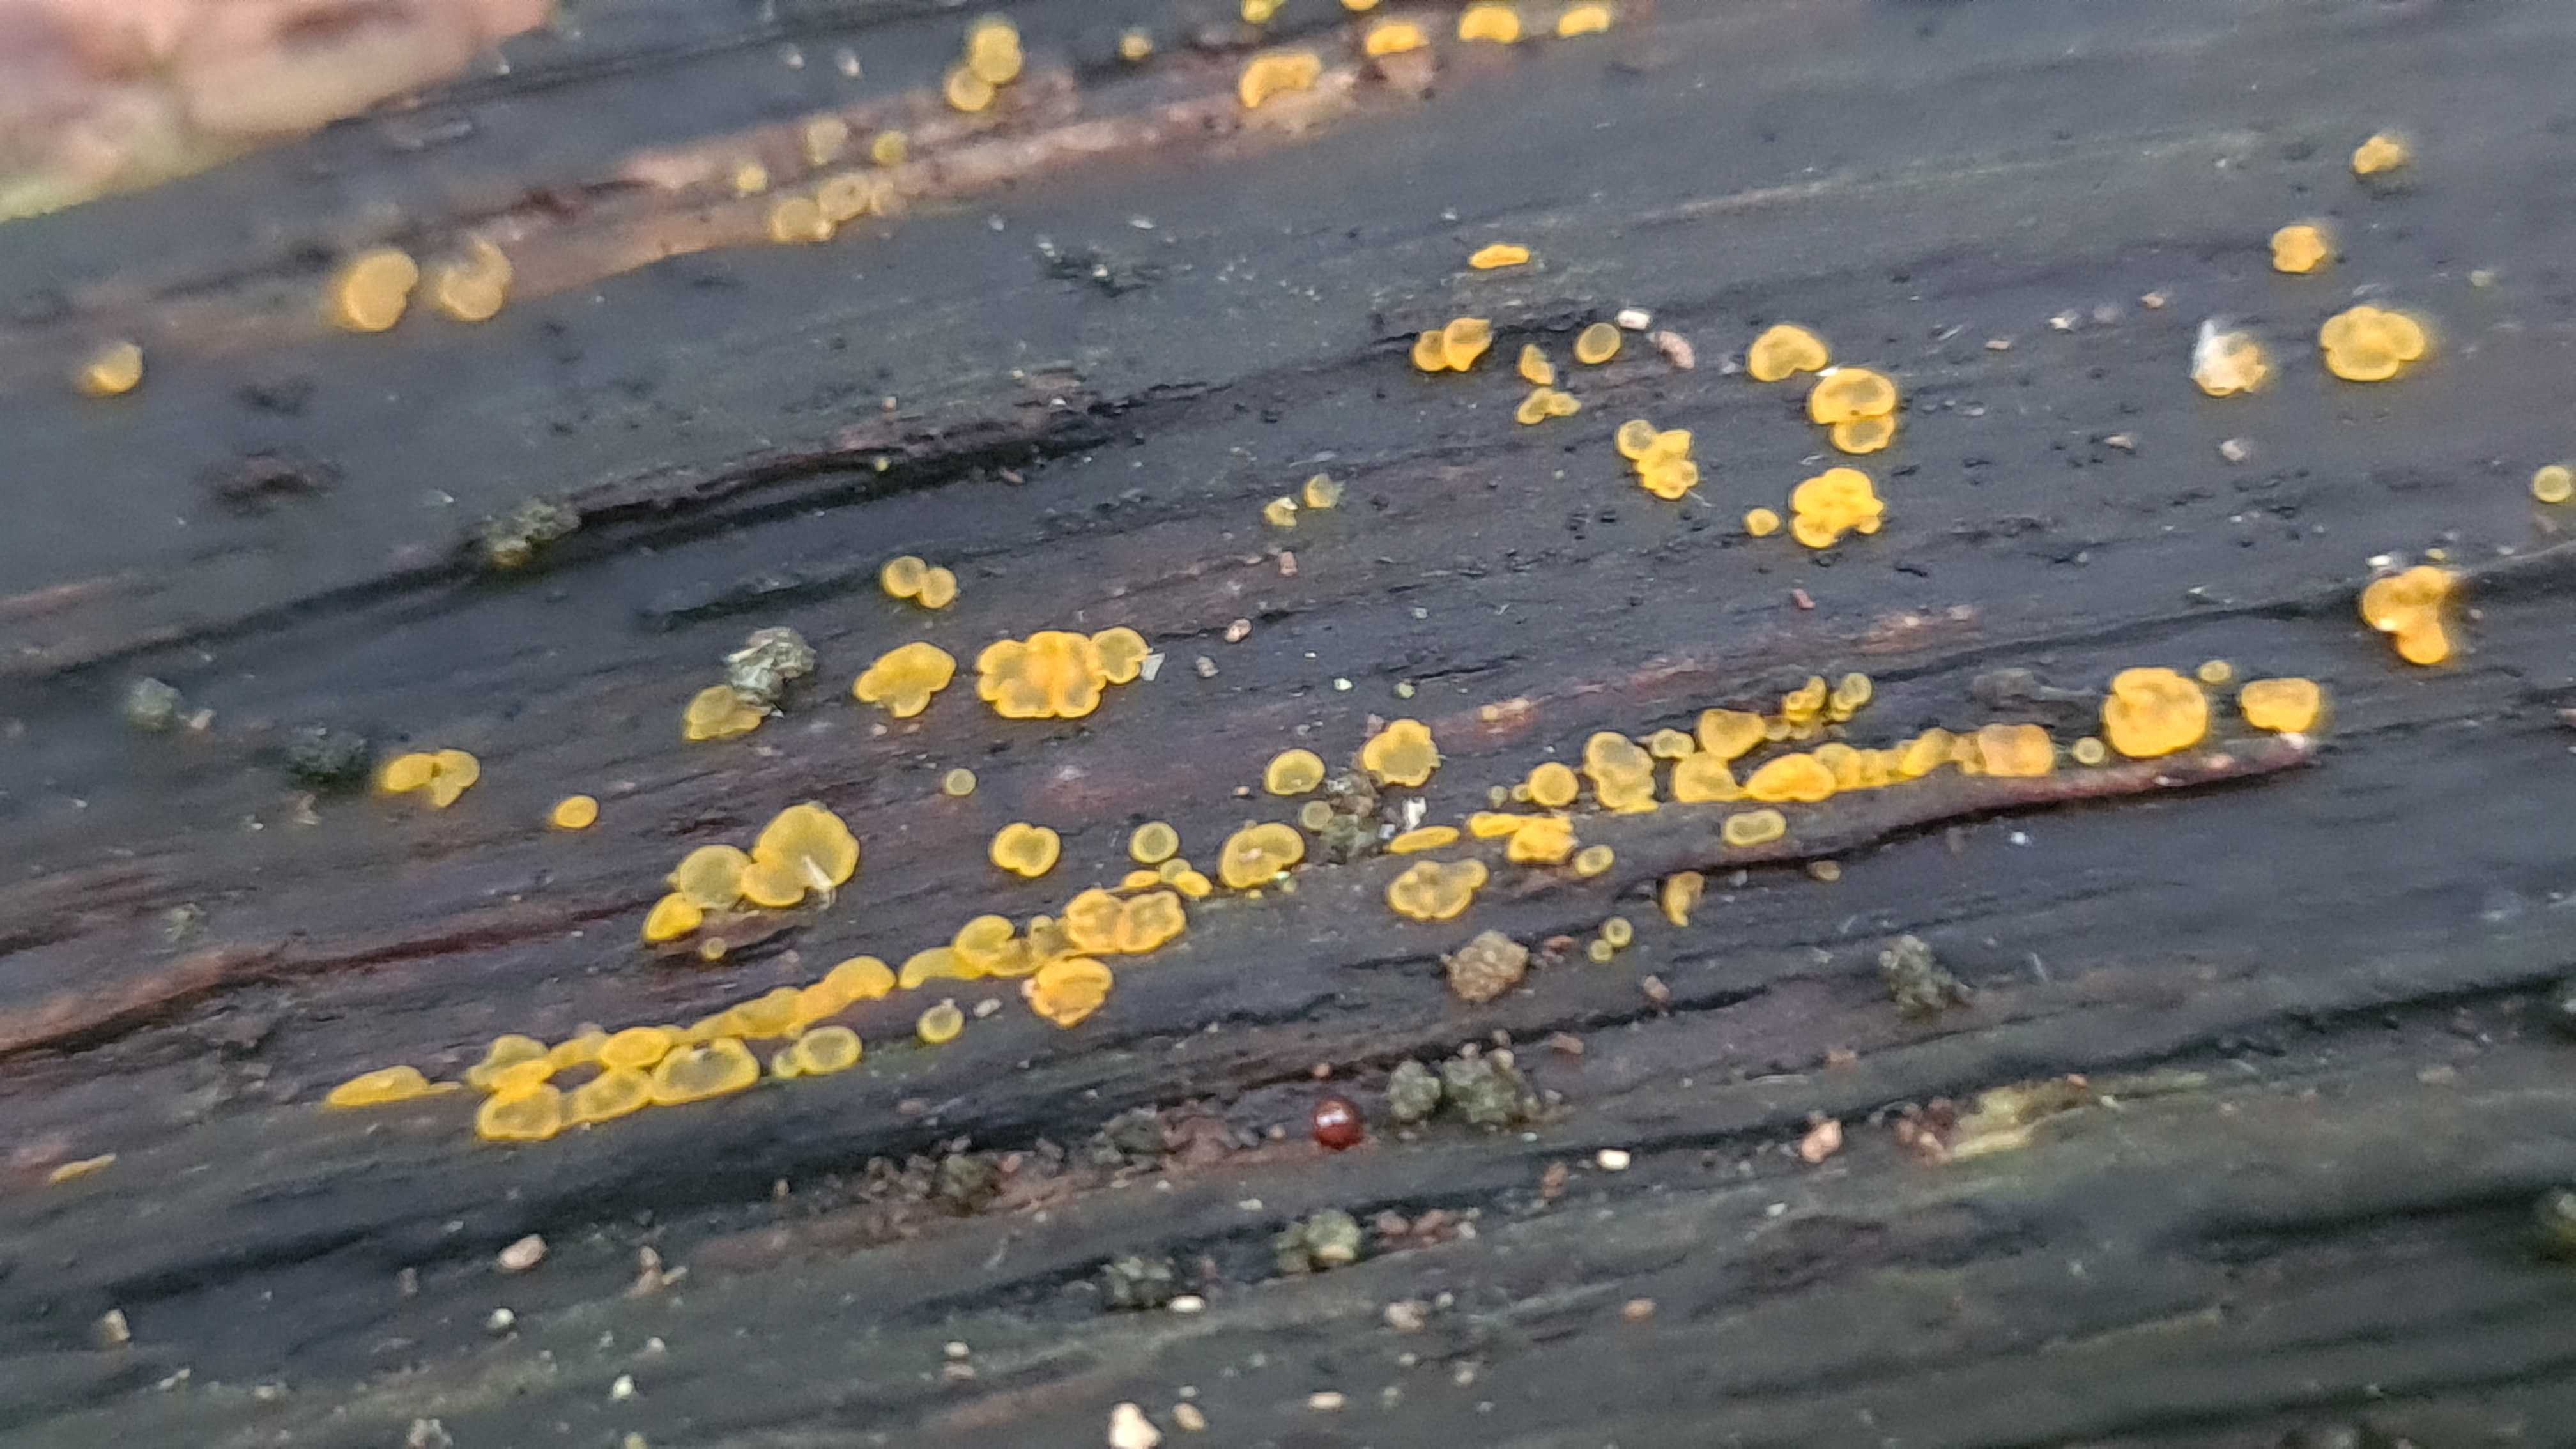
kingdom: Fungi
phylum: Ascomycota
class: Orbiliomycetes
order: Orbiliales
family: Orbiliaceae
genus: Orbilia
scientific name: Orbilia xanthostigma
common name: krumsporet voksskive
